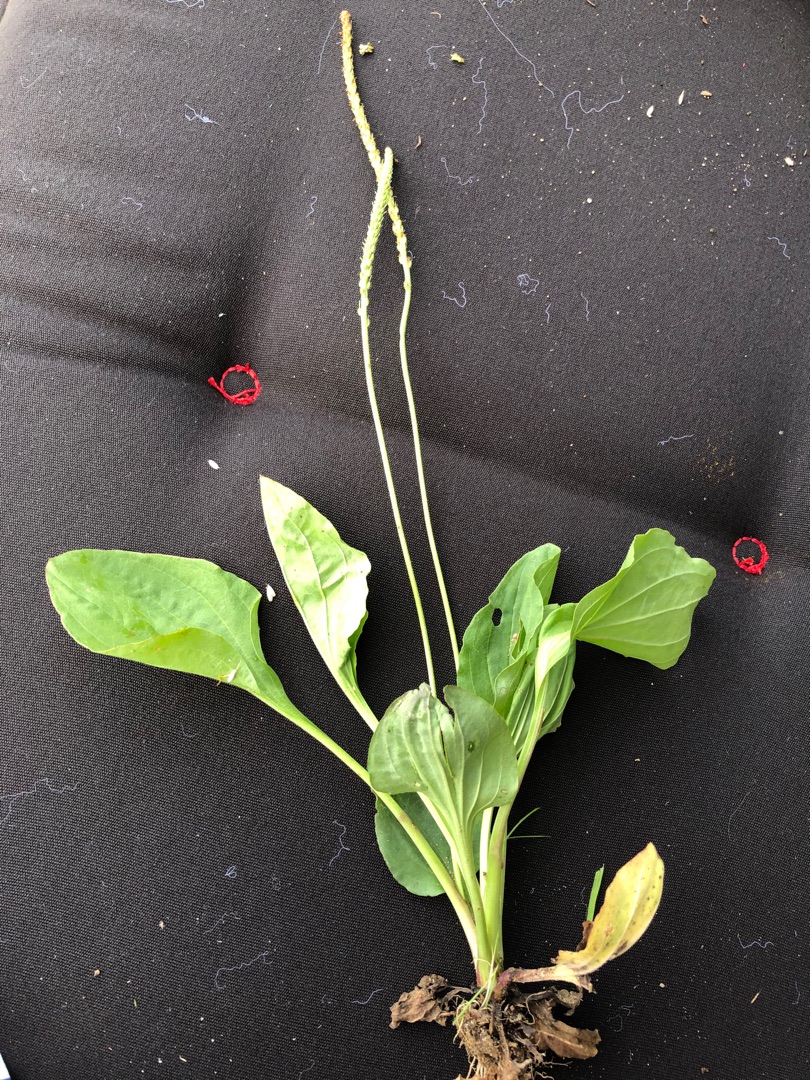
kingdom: Plantae
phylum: Tracheophyta
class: Magnoliopsida
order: Lamiales
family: Plantaginaceae
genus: Plantago
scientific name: Plantago major
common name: Glat vejbred
